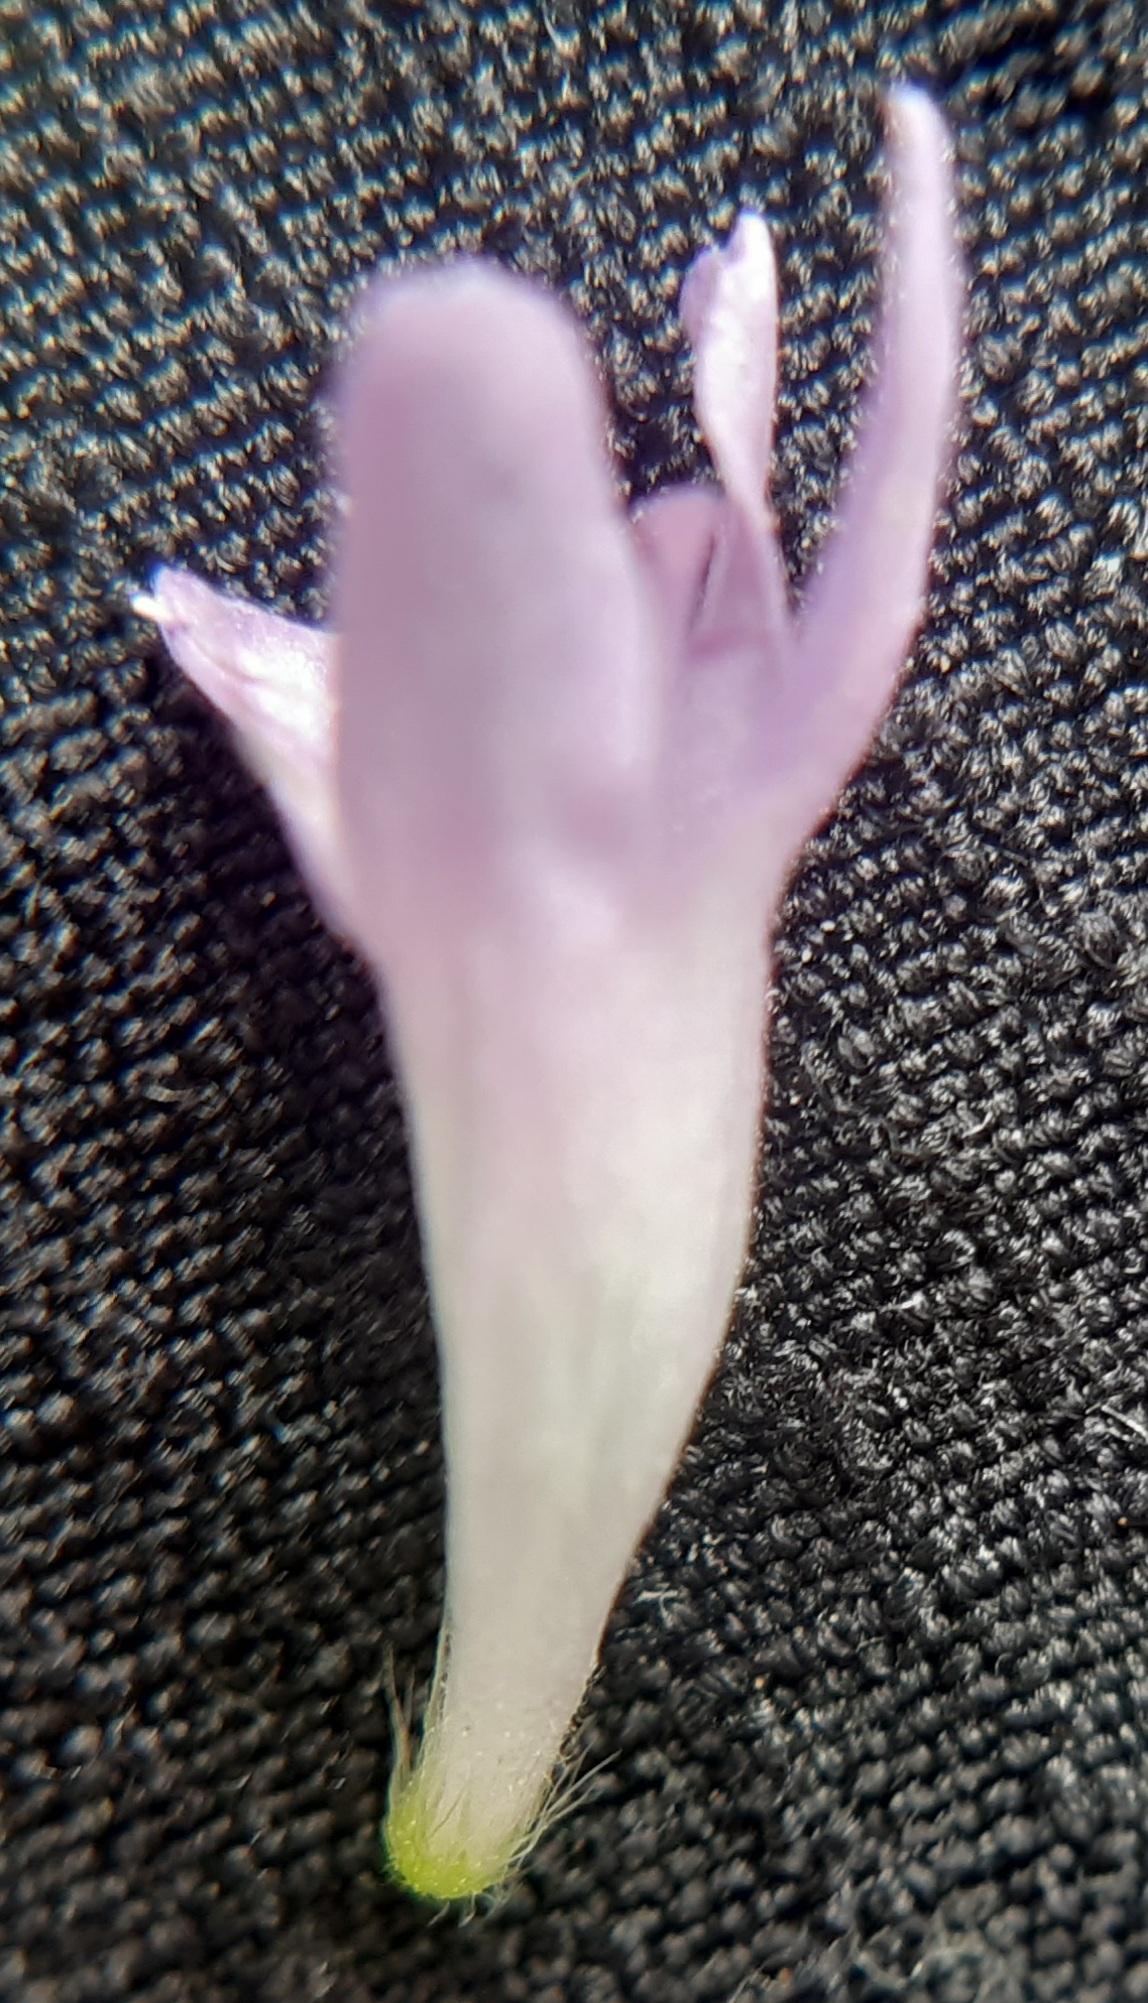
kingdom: Plantae
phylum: Tracheophyta
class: Magnoliopsida
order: Dipsacales
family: Caprifoliaceae
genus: Knautia
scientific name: Knautia arvensis
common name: Blåhat
